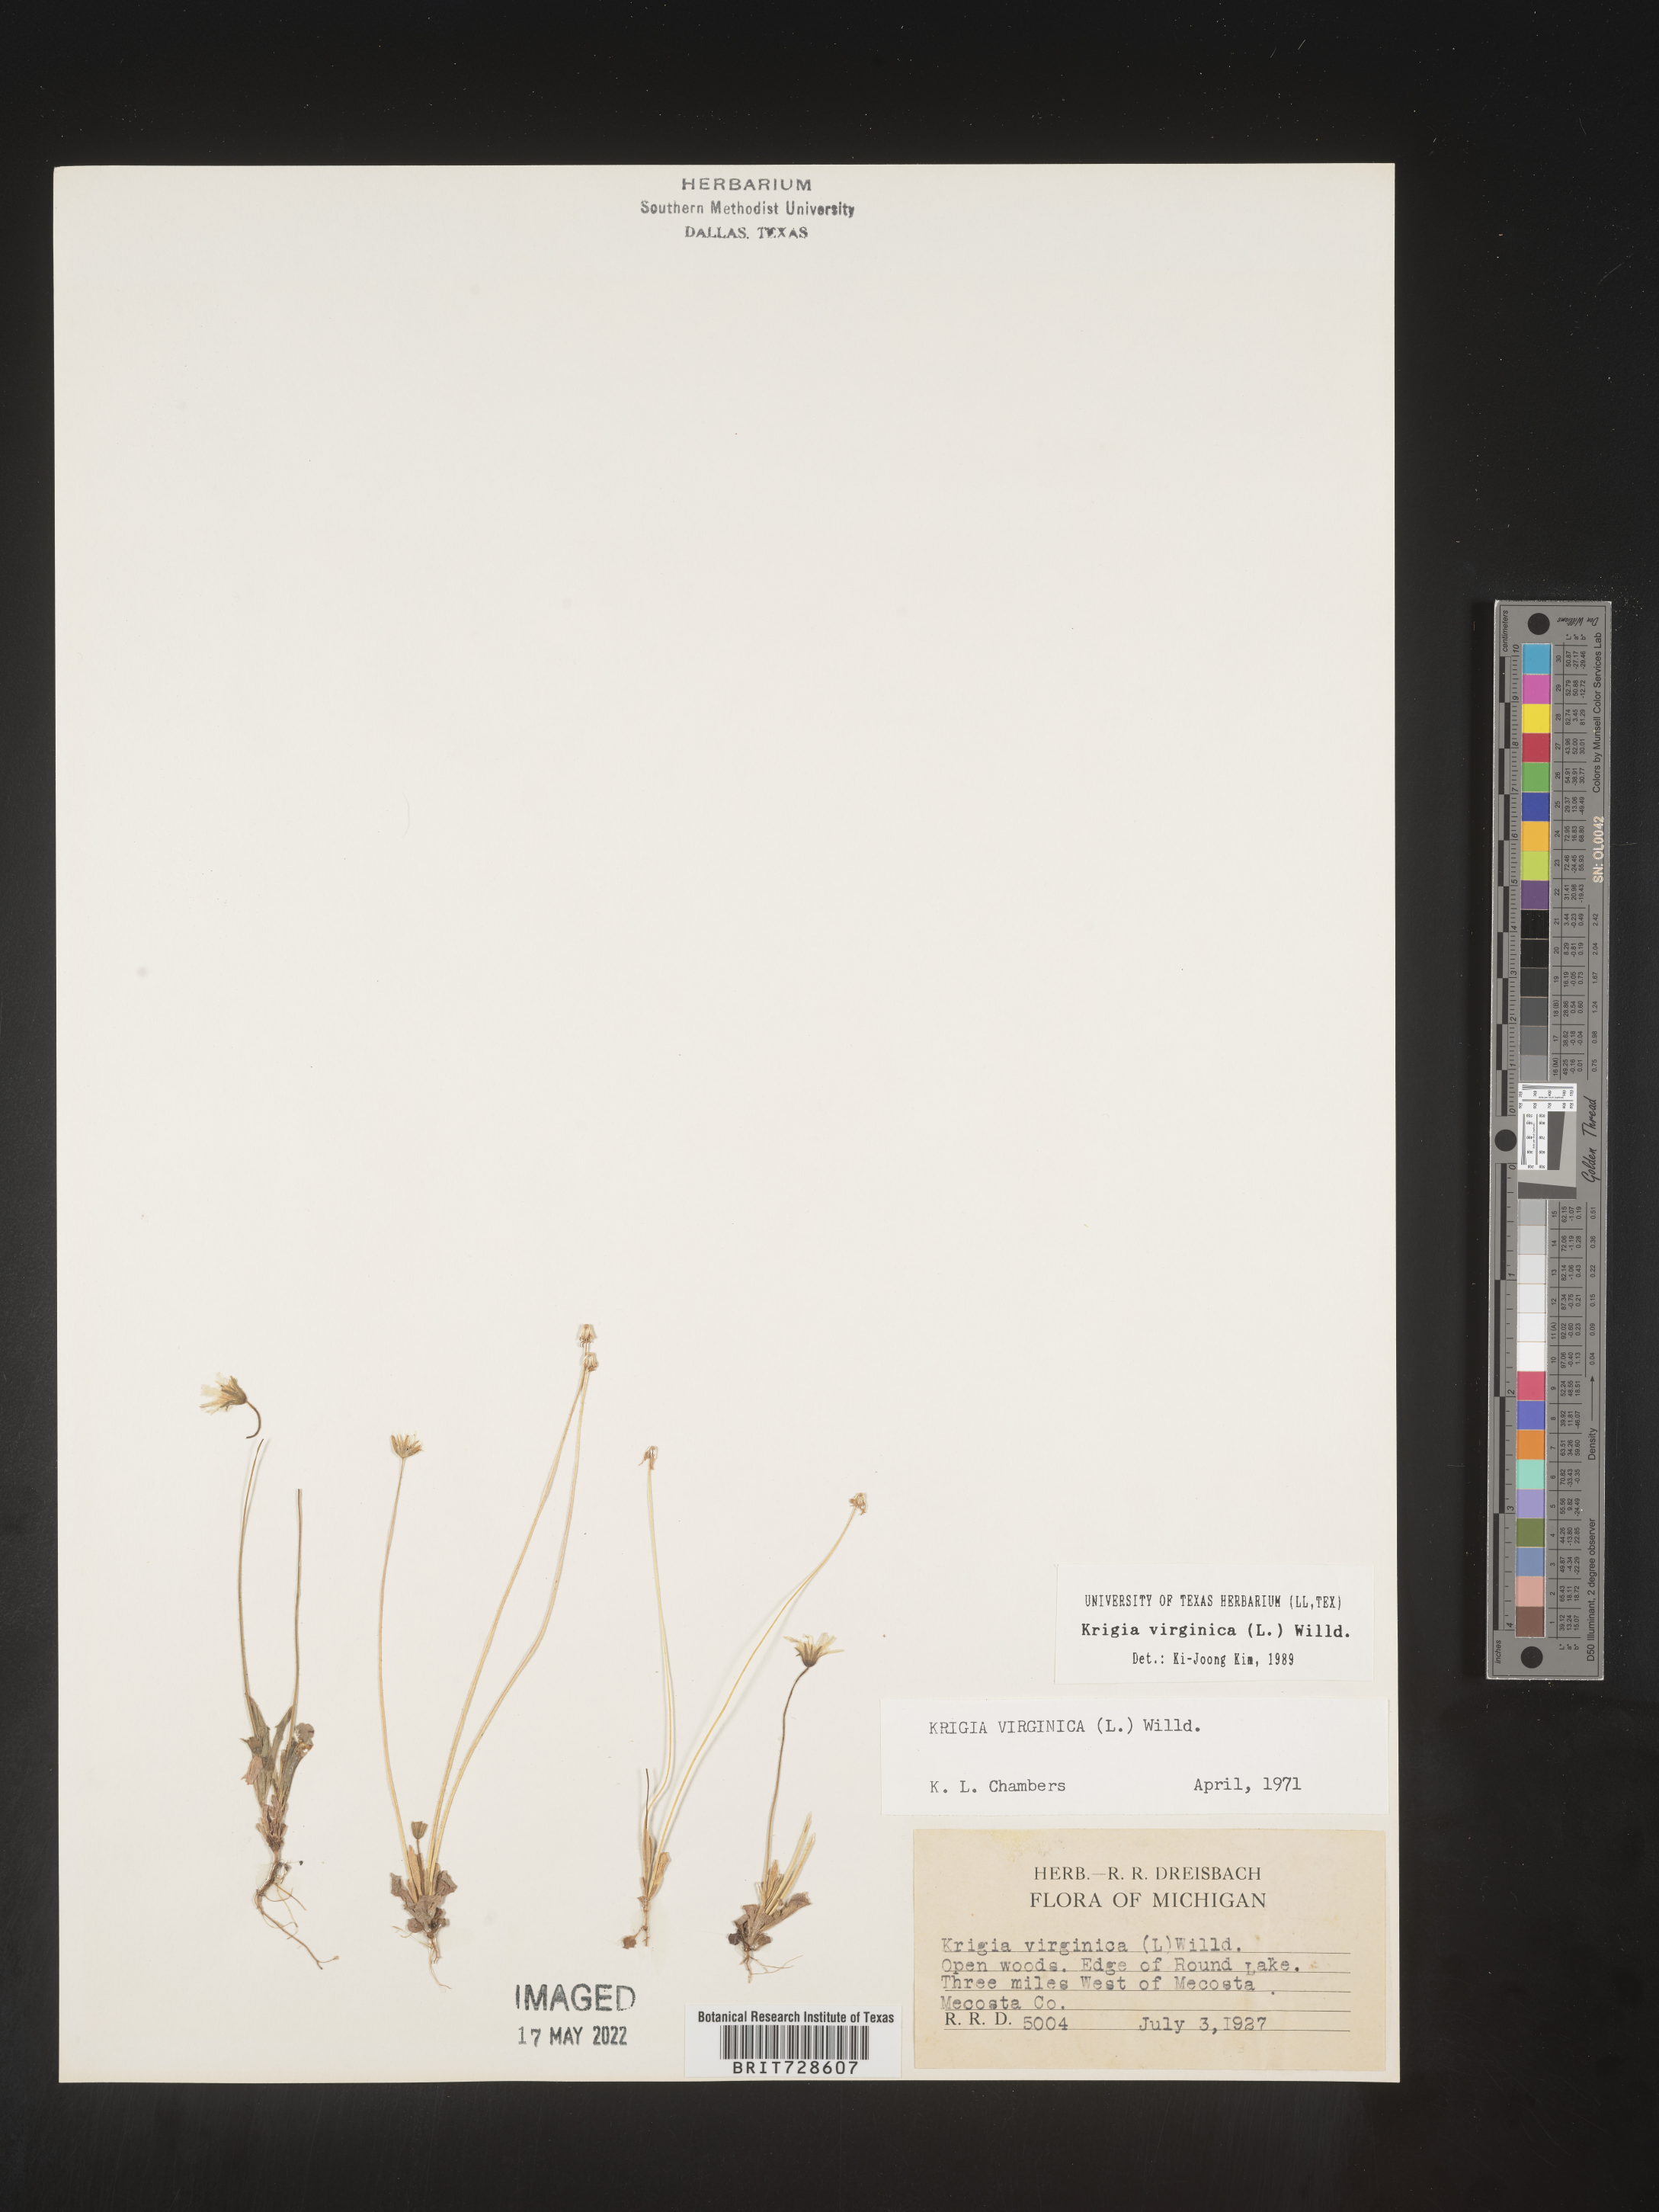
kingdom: Plantae
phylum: Tracheophyta
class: Magnoliopsida
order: Asterales
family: Asteraceae
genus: Krigia
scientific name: Krigia virginica
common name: Virginia dwarf-dandelion
